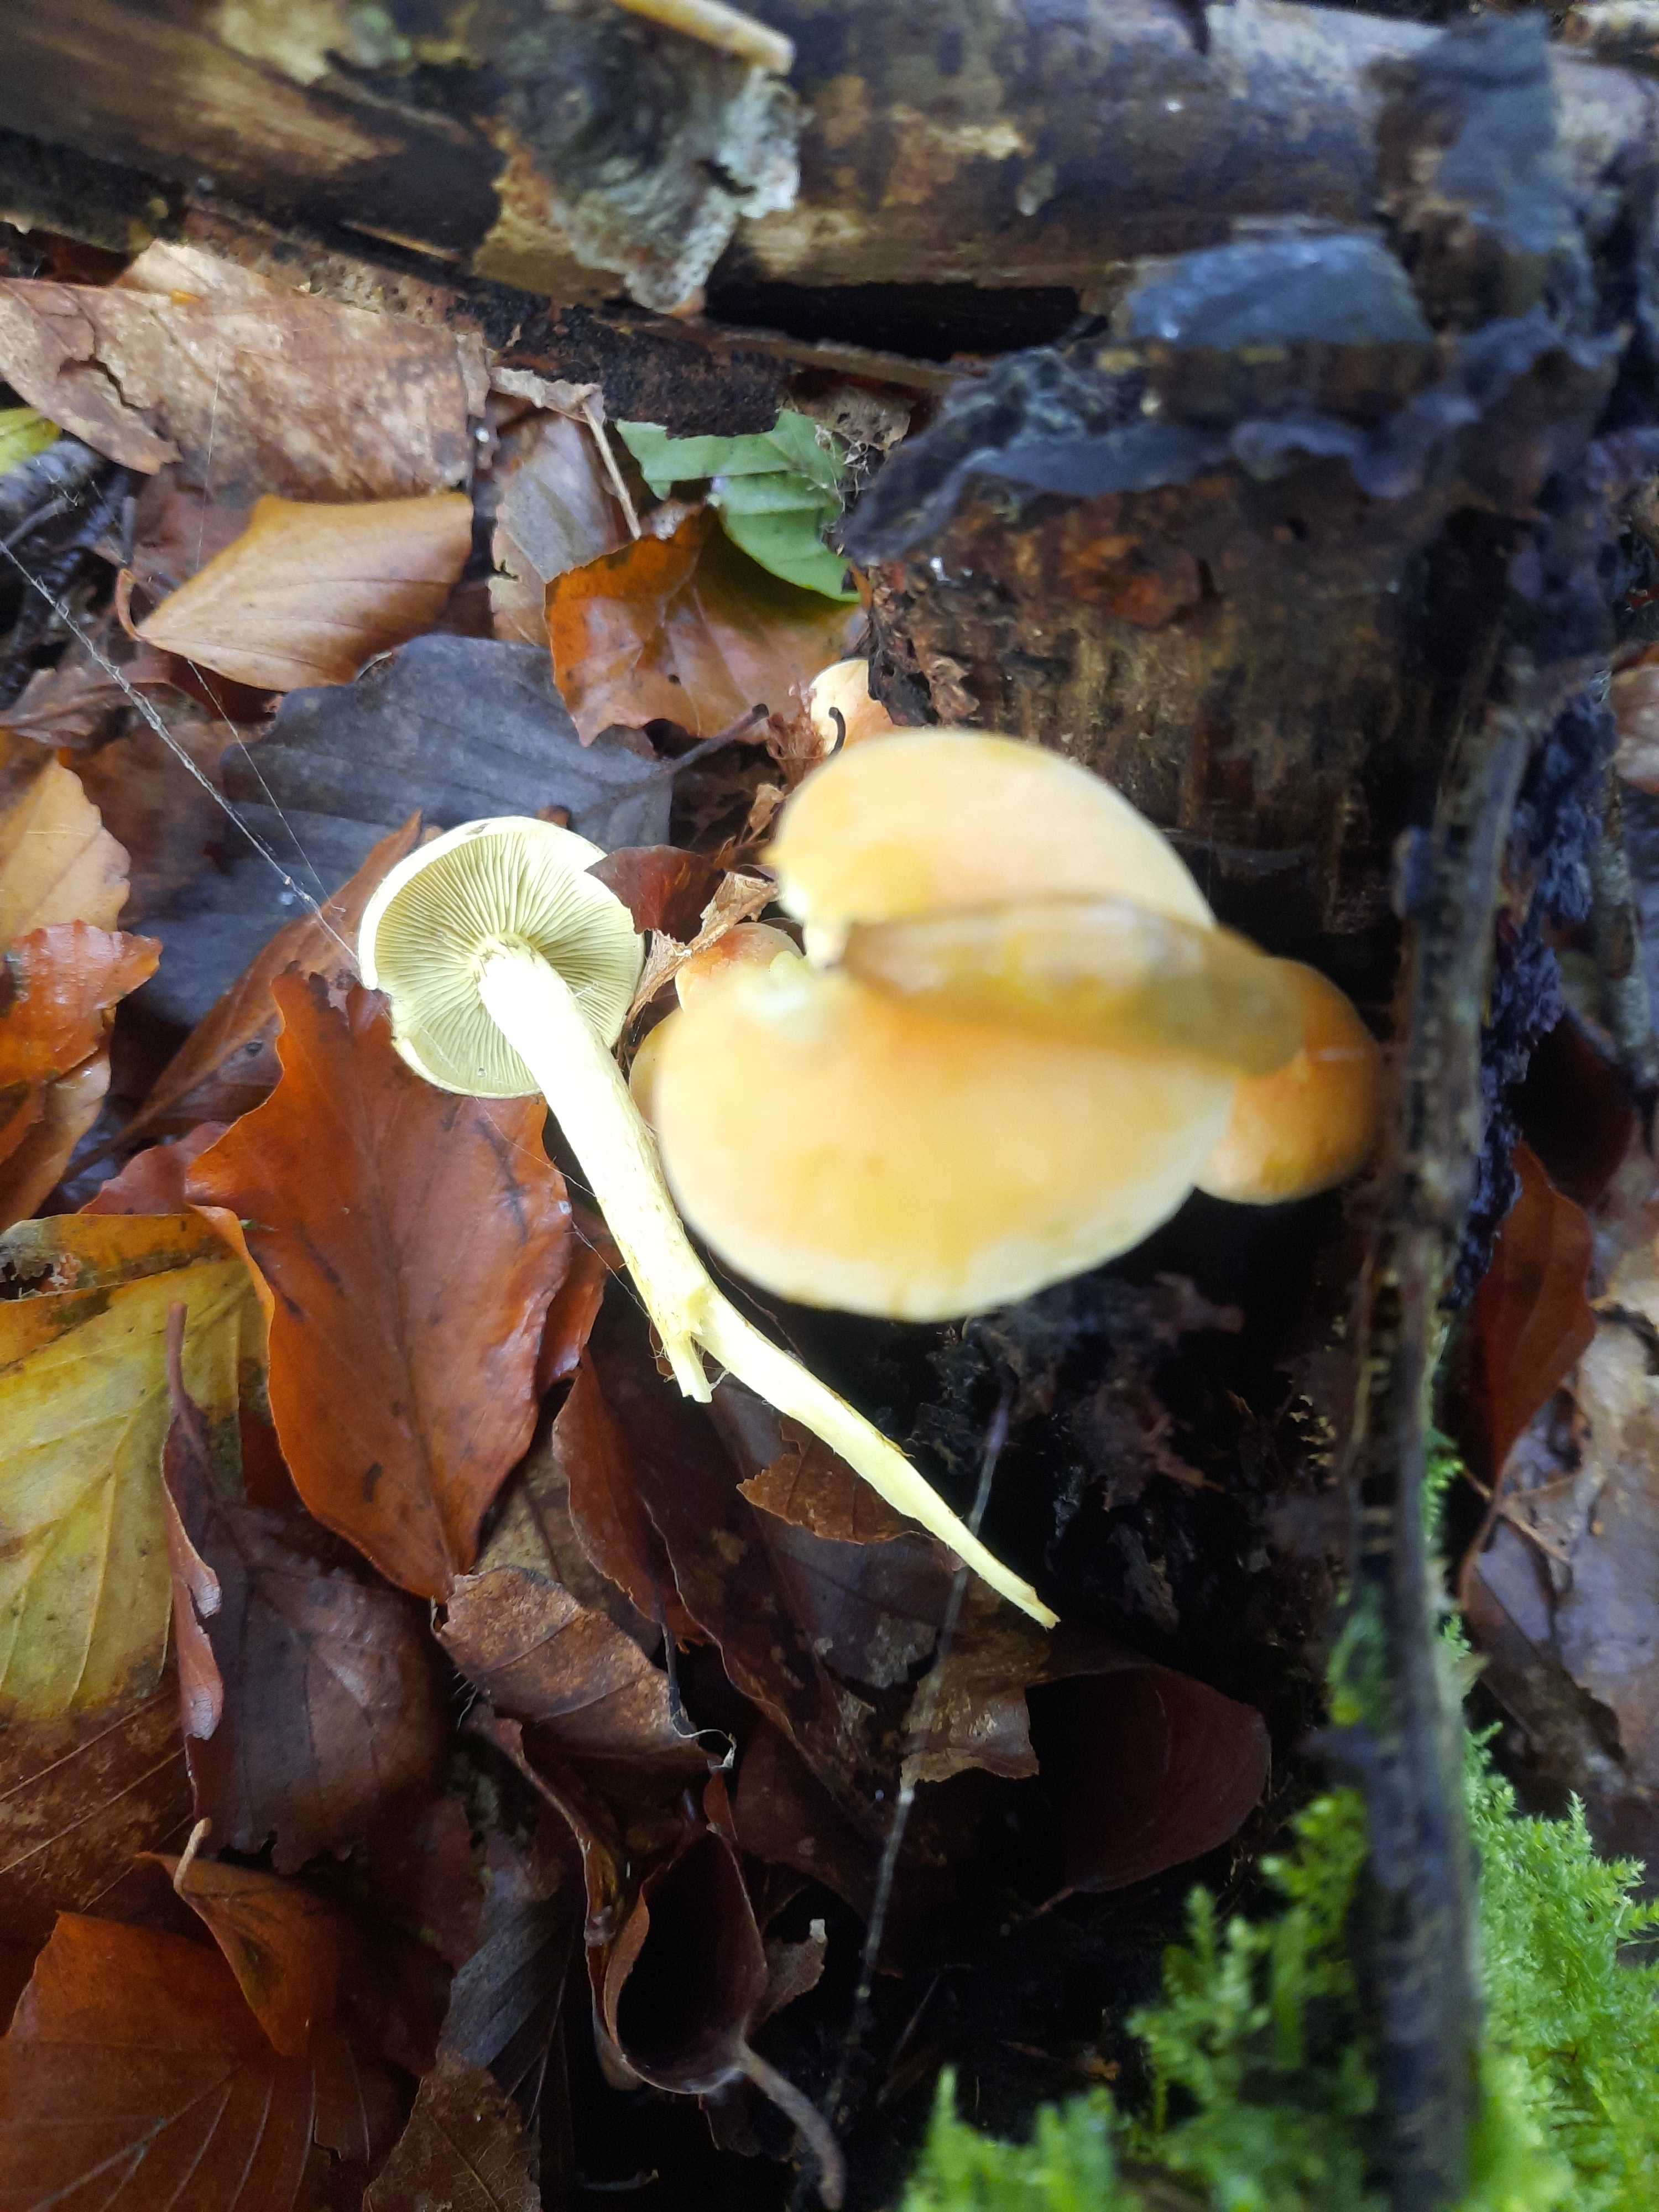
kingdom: Fungi
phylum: Basidiomycota
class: Agaricomycetes
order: Agaricales
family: Strophariaceae
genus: Hypholoma
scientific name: Hypholoma fasciculare
